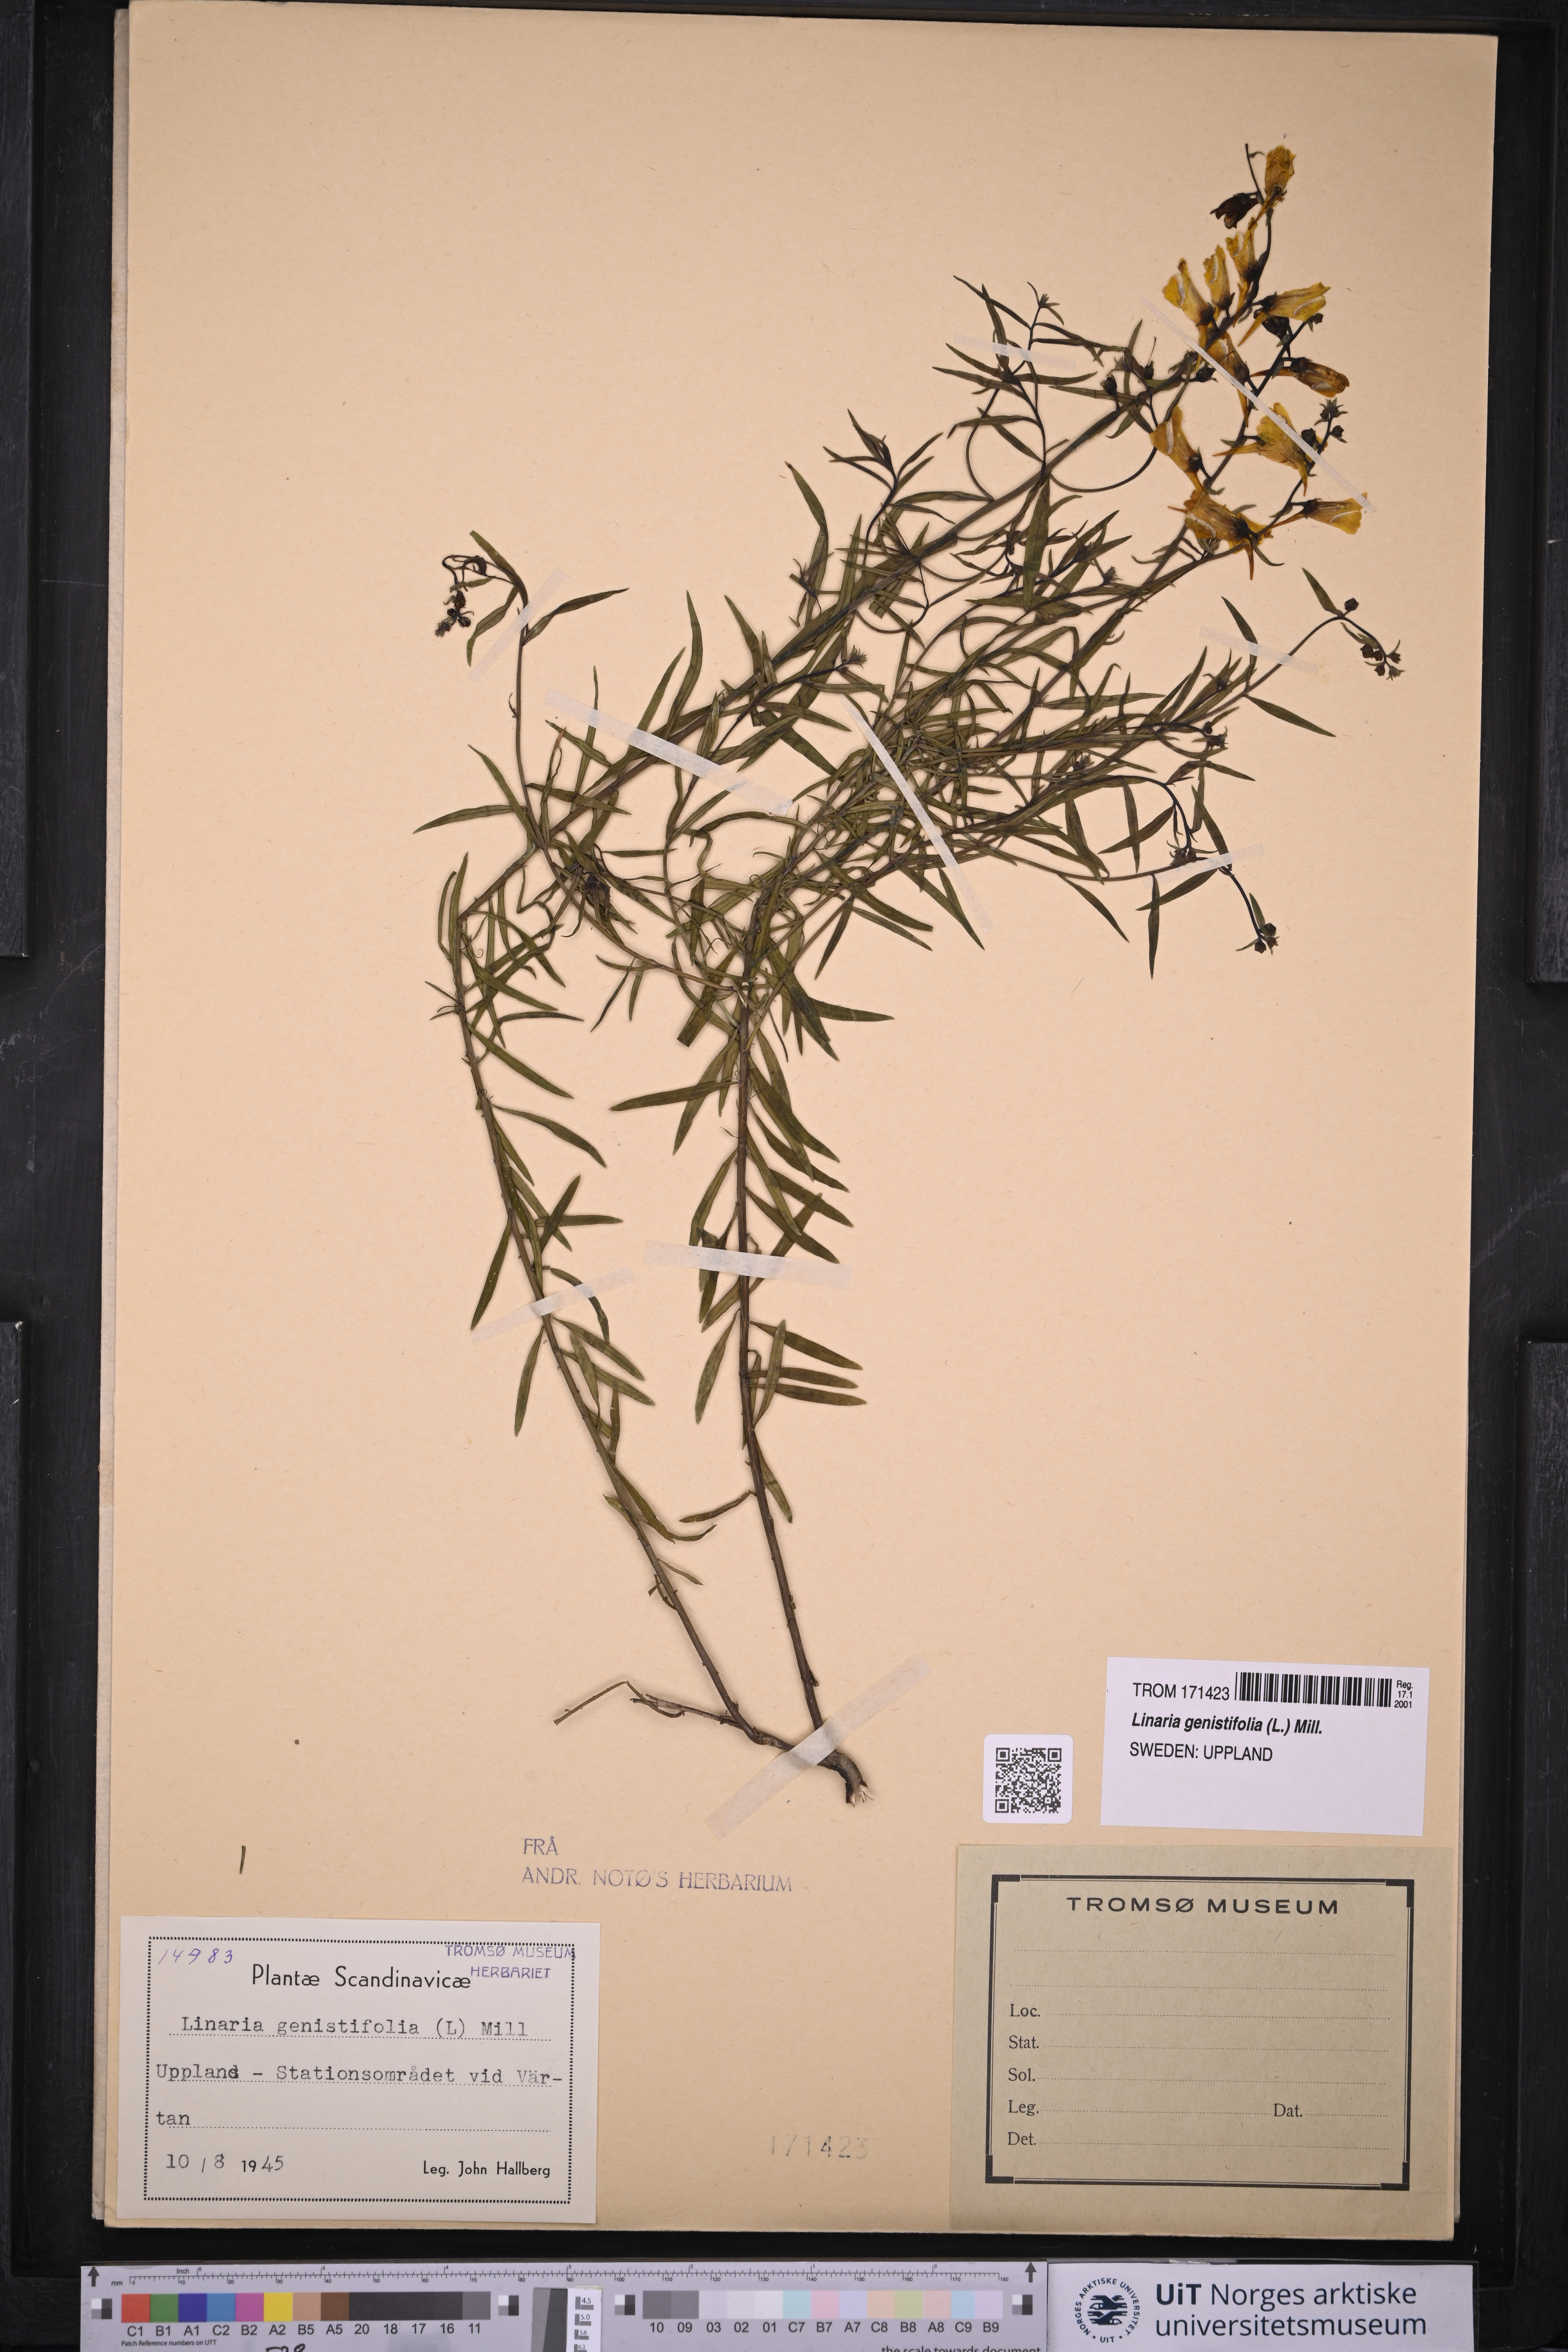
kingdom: Plantae
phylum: Tracheophyta
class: Magnoliopsida
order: Lamiales
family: Plantaginaceae
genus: Linaria
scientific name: Linaria genistifolia
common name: Broomleaf toadflax
